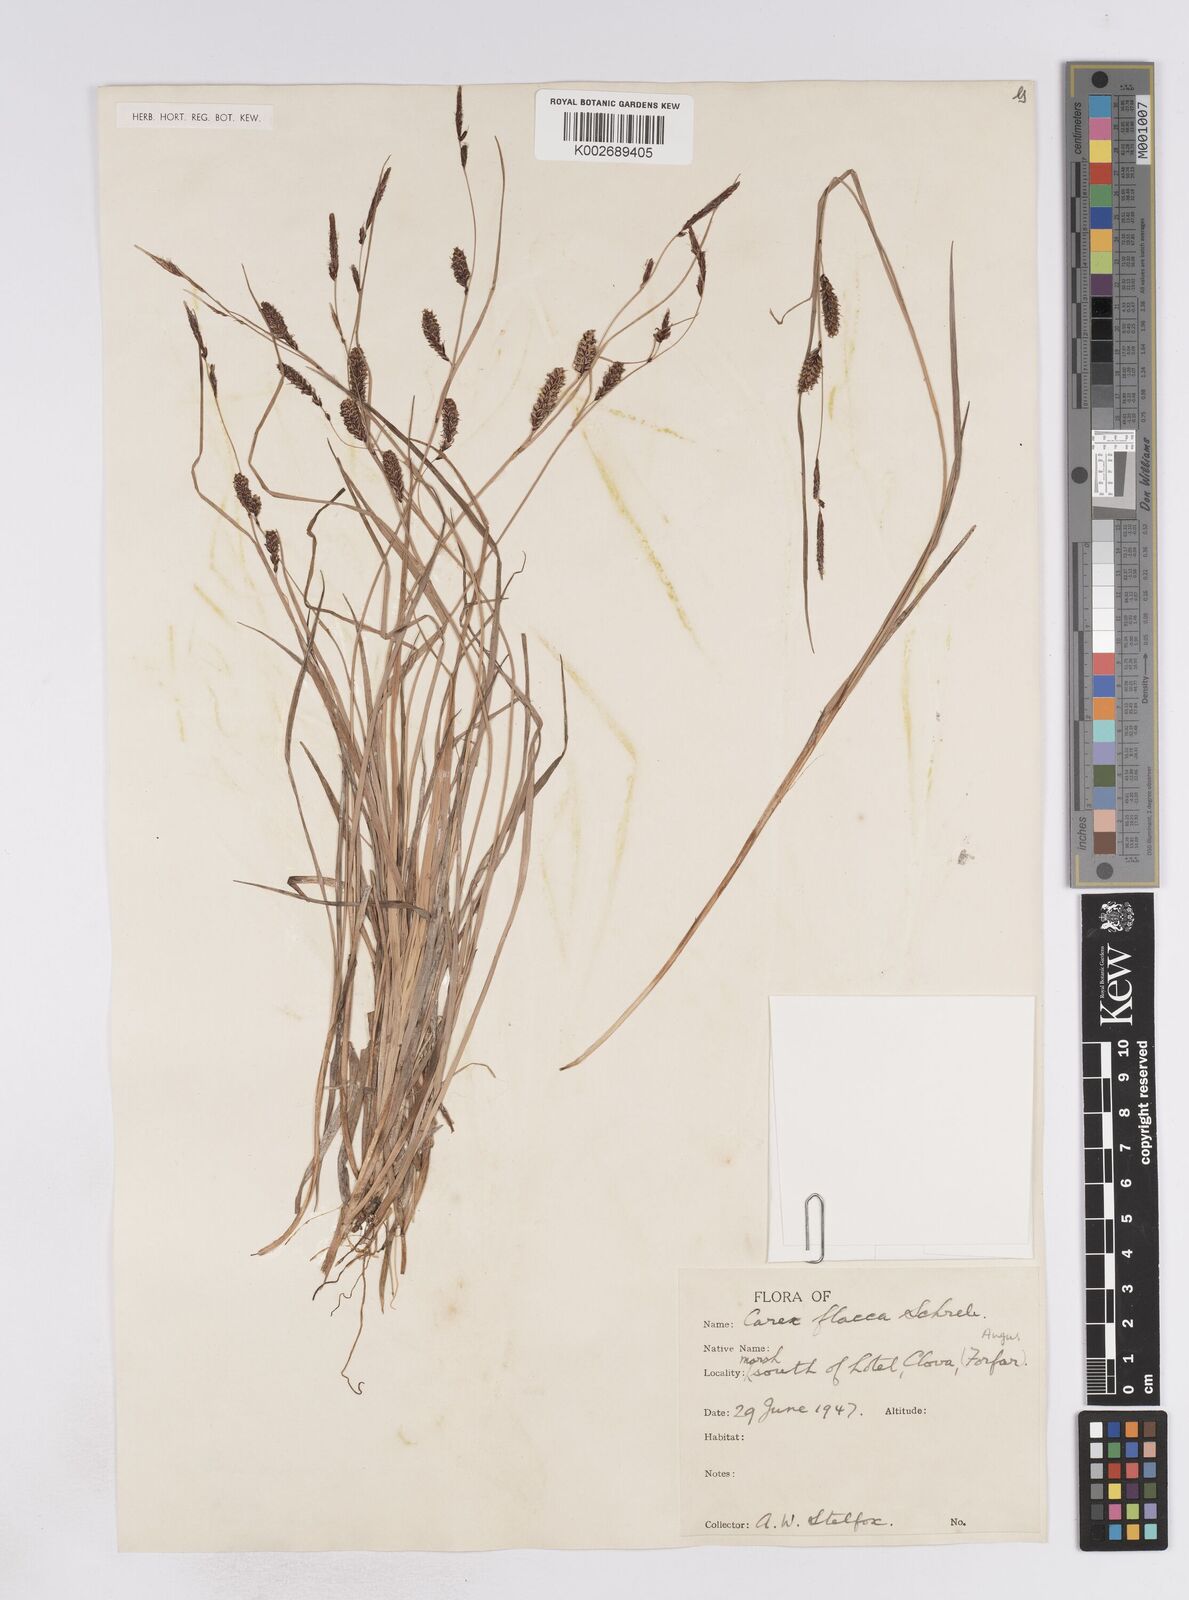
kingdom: Plantae
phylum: Tracheophyta
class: Liliopsida
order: Poales
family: Cyperaceae
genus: Carex
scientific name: Carex flacca
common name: Glaucous sedge
